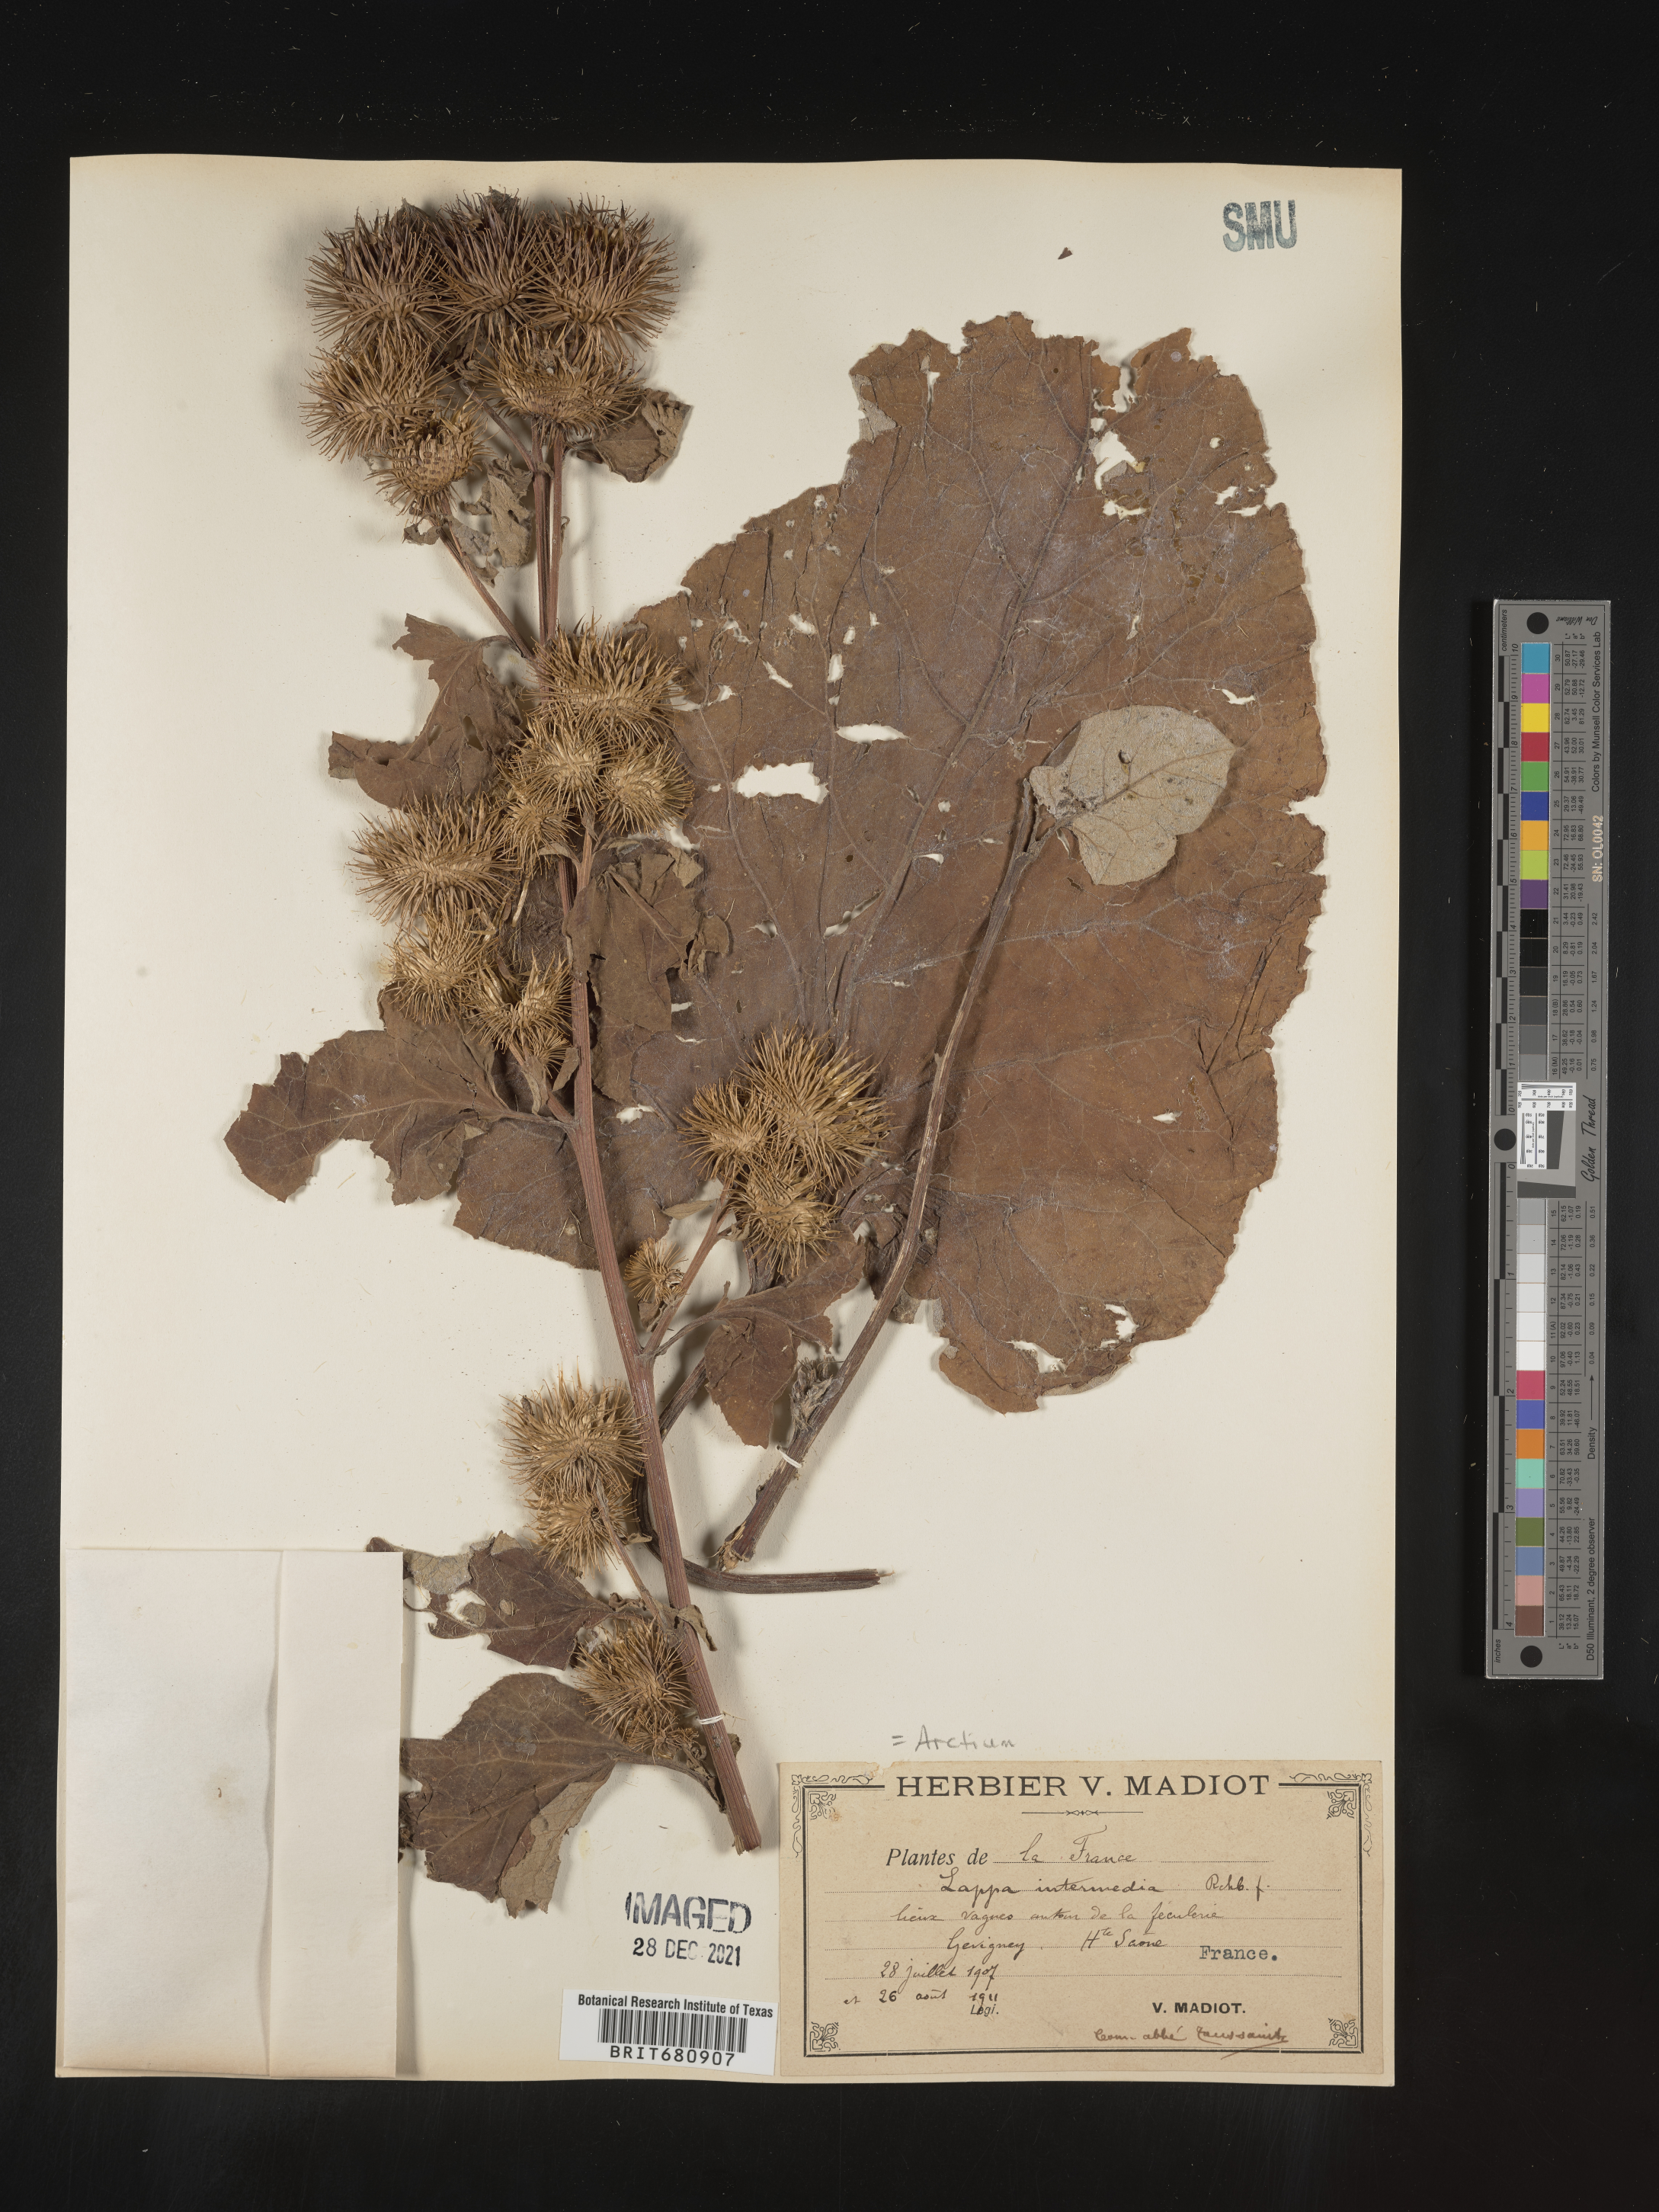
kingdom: Plantae
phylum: Tracheophyta
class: Magnoliopsida
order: Asterales
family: Asteraceae
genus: Arctium
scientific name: Arctium lappa
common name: Greater burdock
